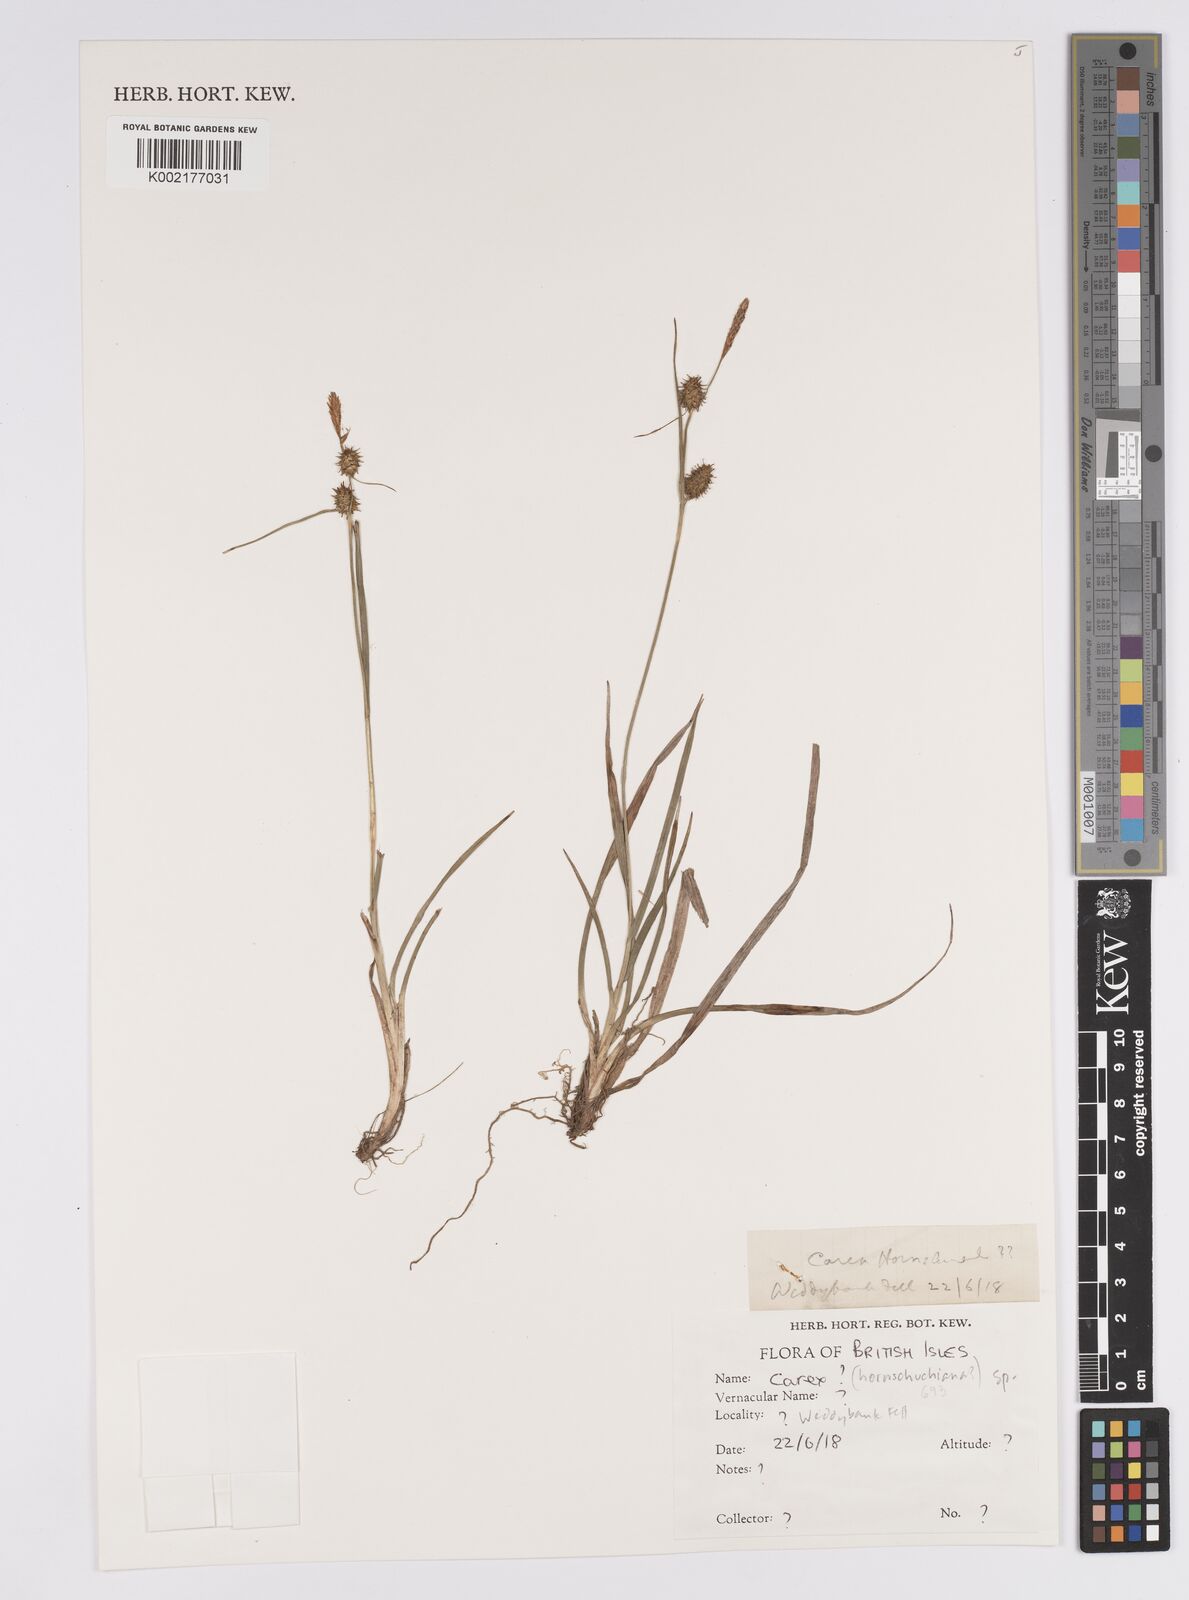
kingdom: Plantae
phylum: Tracheophyta
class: Liliopsida
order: Poales
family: Cyperaceae
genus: Carex
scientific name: Carex hostiana
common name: Tawny sedge
